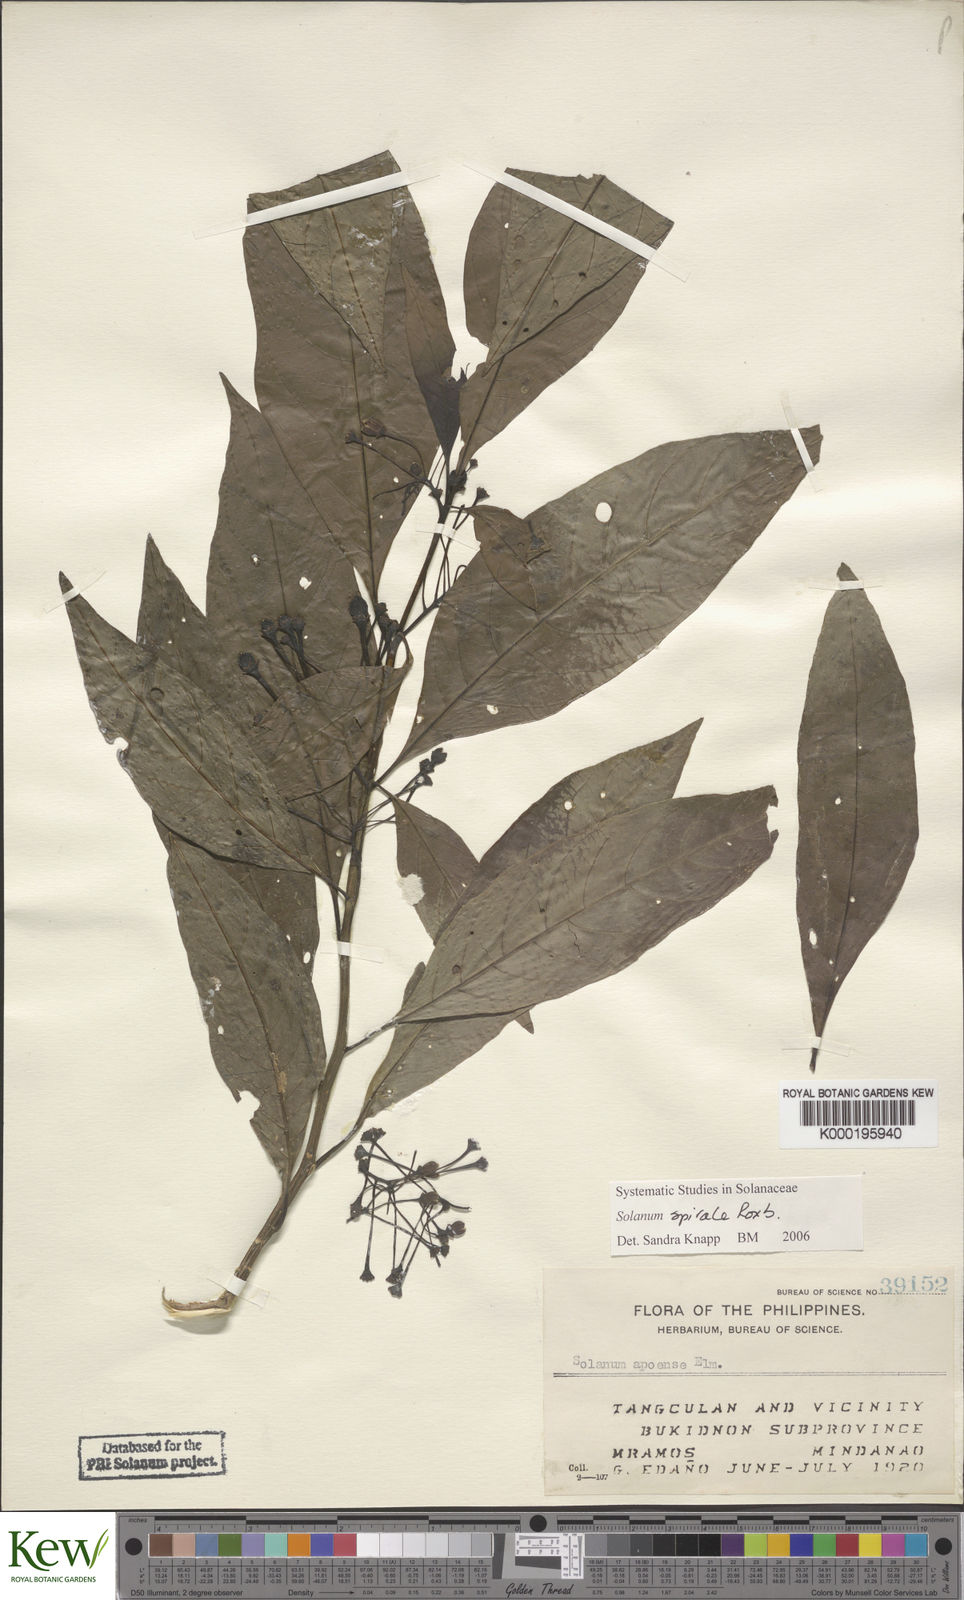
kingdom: Plantae
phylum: Tracheophyta
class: Magnoliopsida
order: Solanales
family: Solanaceae
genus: Solanum
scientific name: Solanum spirale
